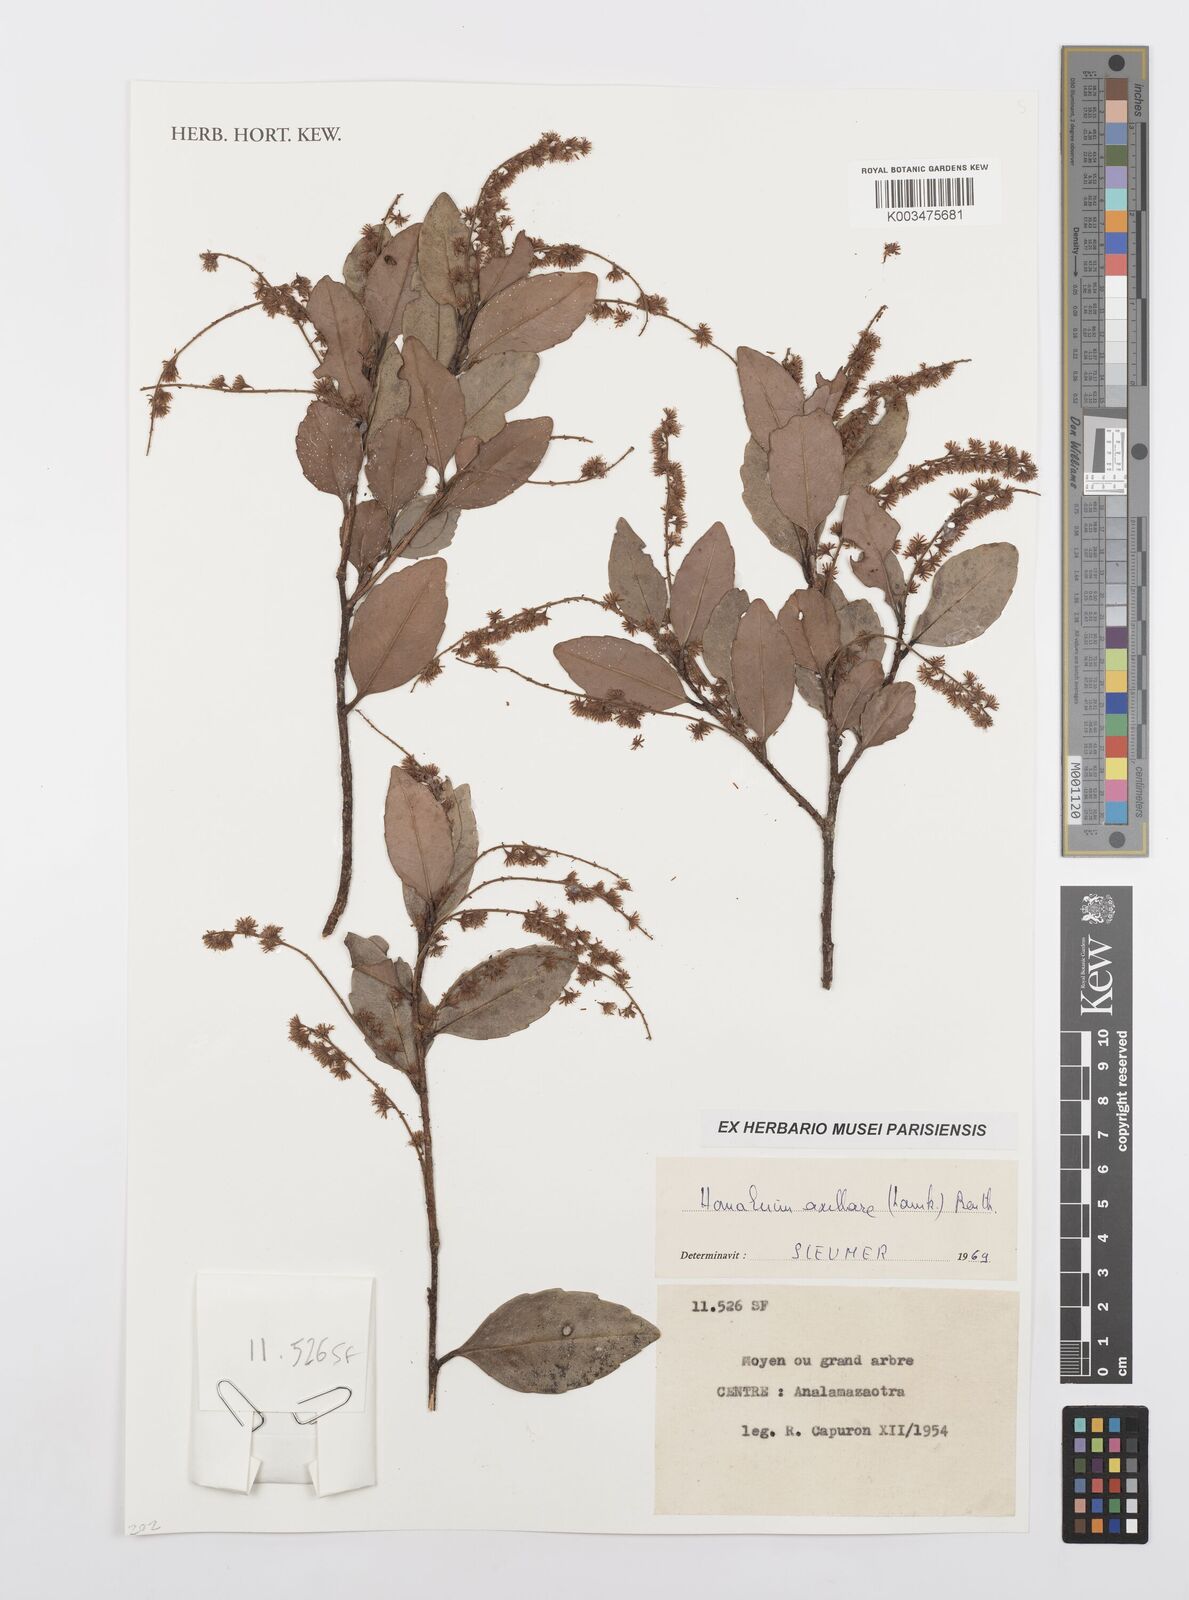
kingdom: Plantae
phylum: Tracheophyta
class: Magnoliopsida
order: Malpighiales
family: Salicaceae
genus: Homalium
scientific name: Homalium axillare
